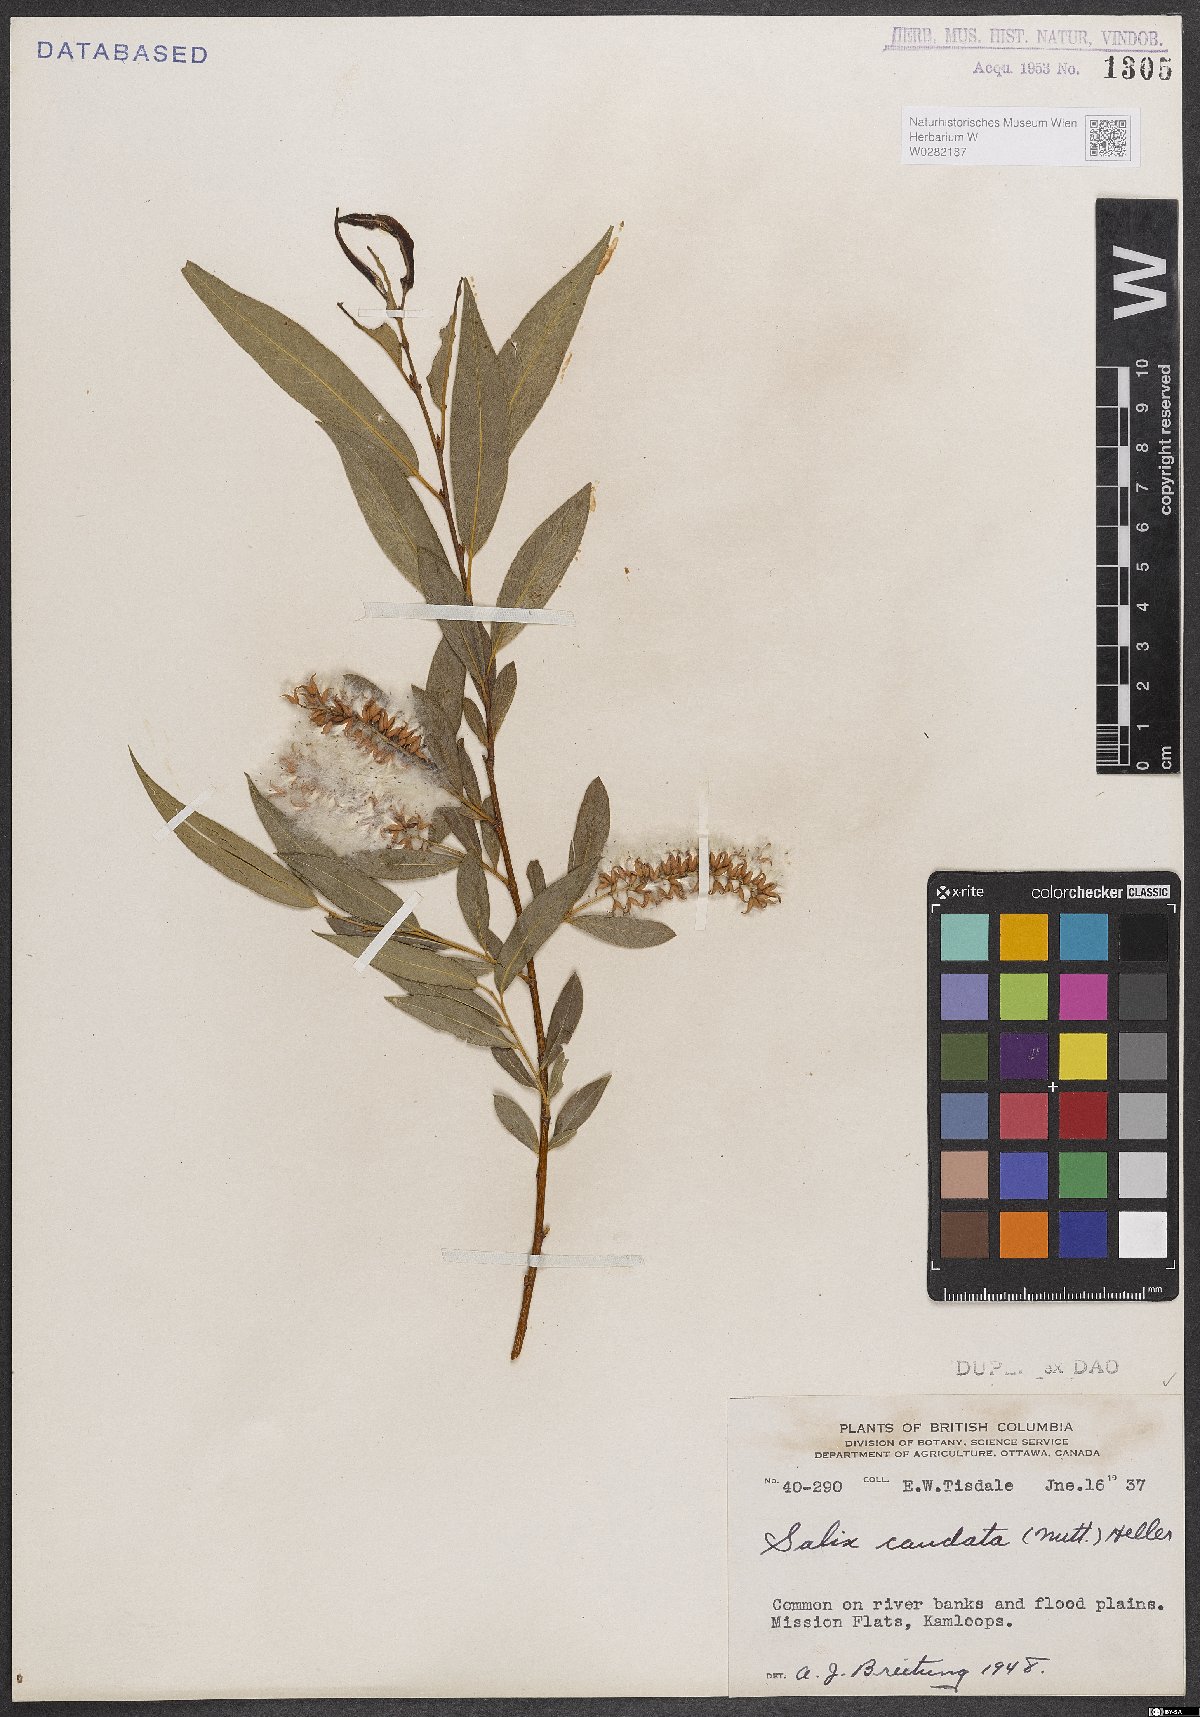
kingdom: Plantae
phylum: Tracheophyta
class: Magnoliopsida
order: Malpighiales
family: Salicaceae
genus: Salix
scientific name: Salix lucida
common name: Shining willow
